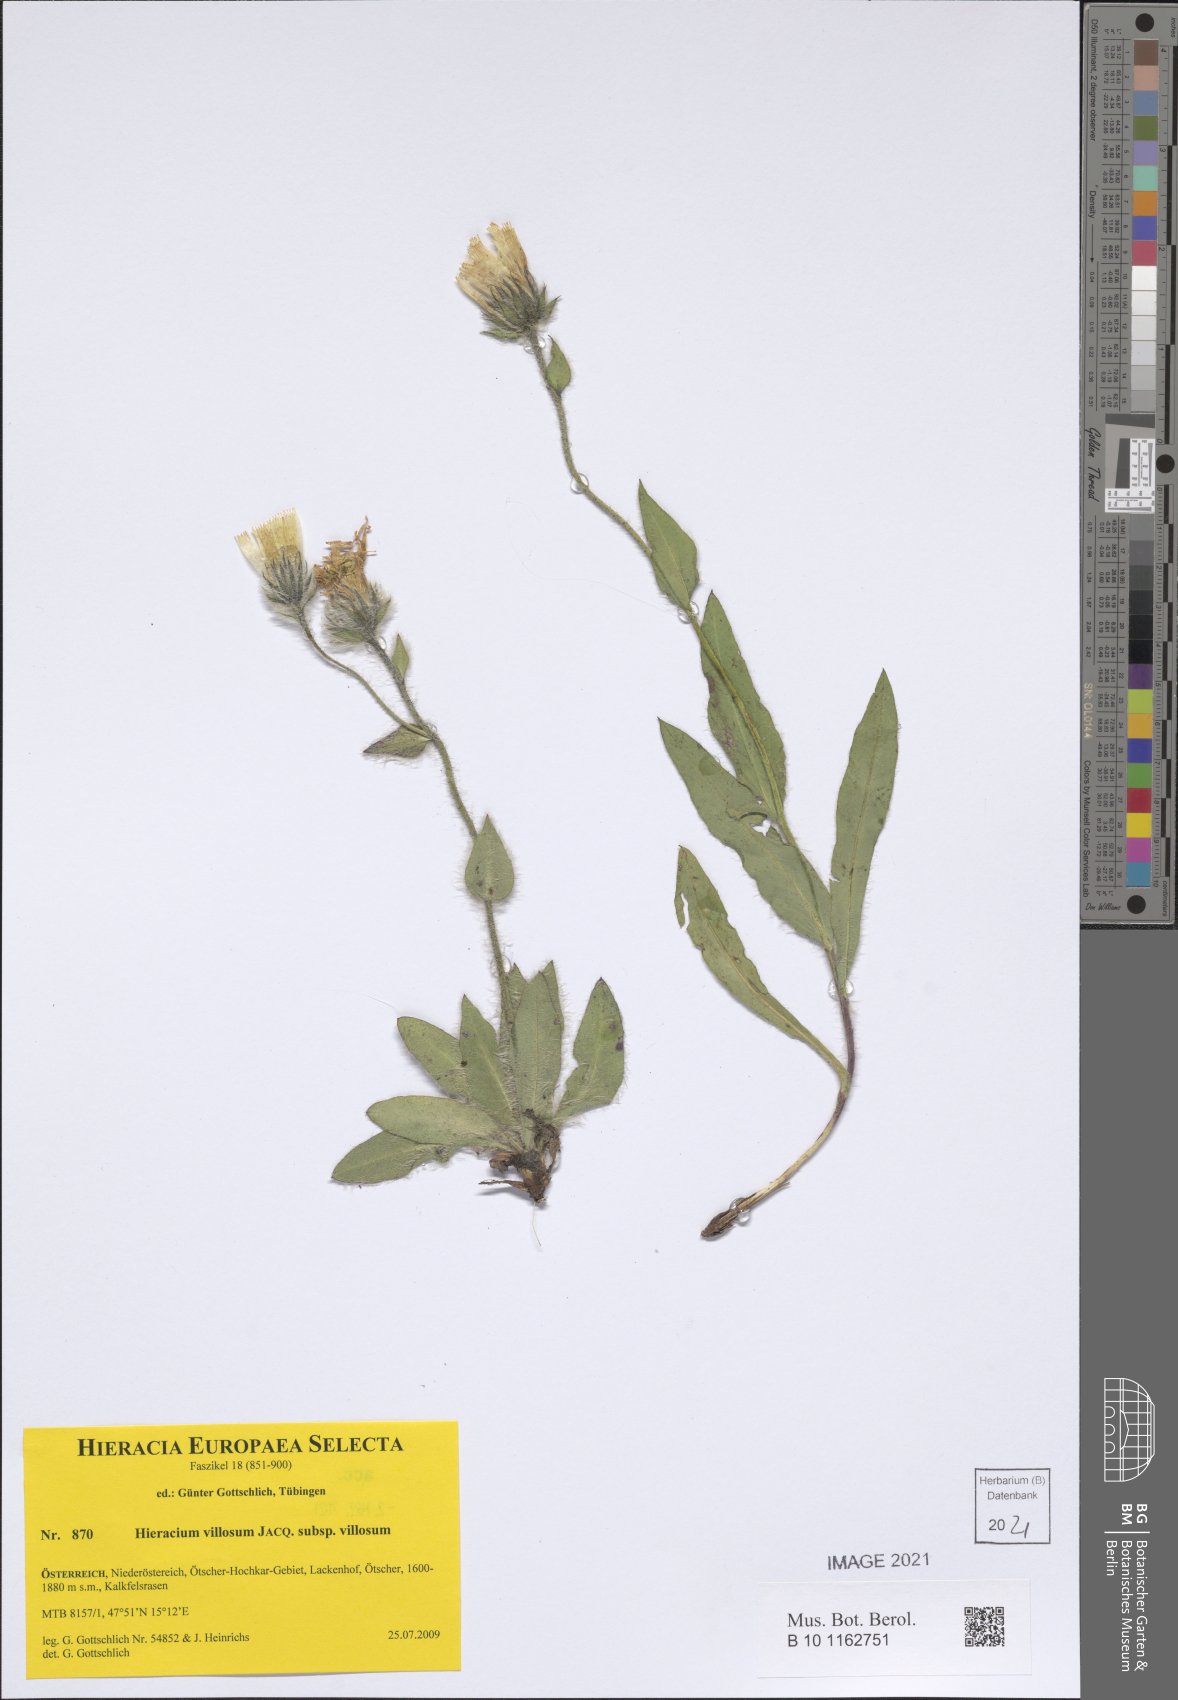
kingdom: Plantae
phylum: Tracheophyta
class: Magnoliopsida
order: Asterales
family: Asteraceae
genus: Hieracium
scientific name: Hieracium villosum
